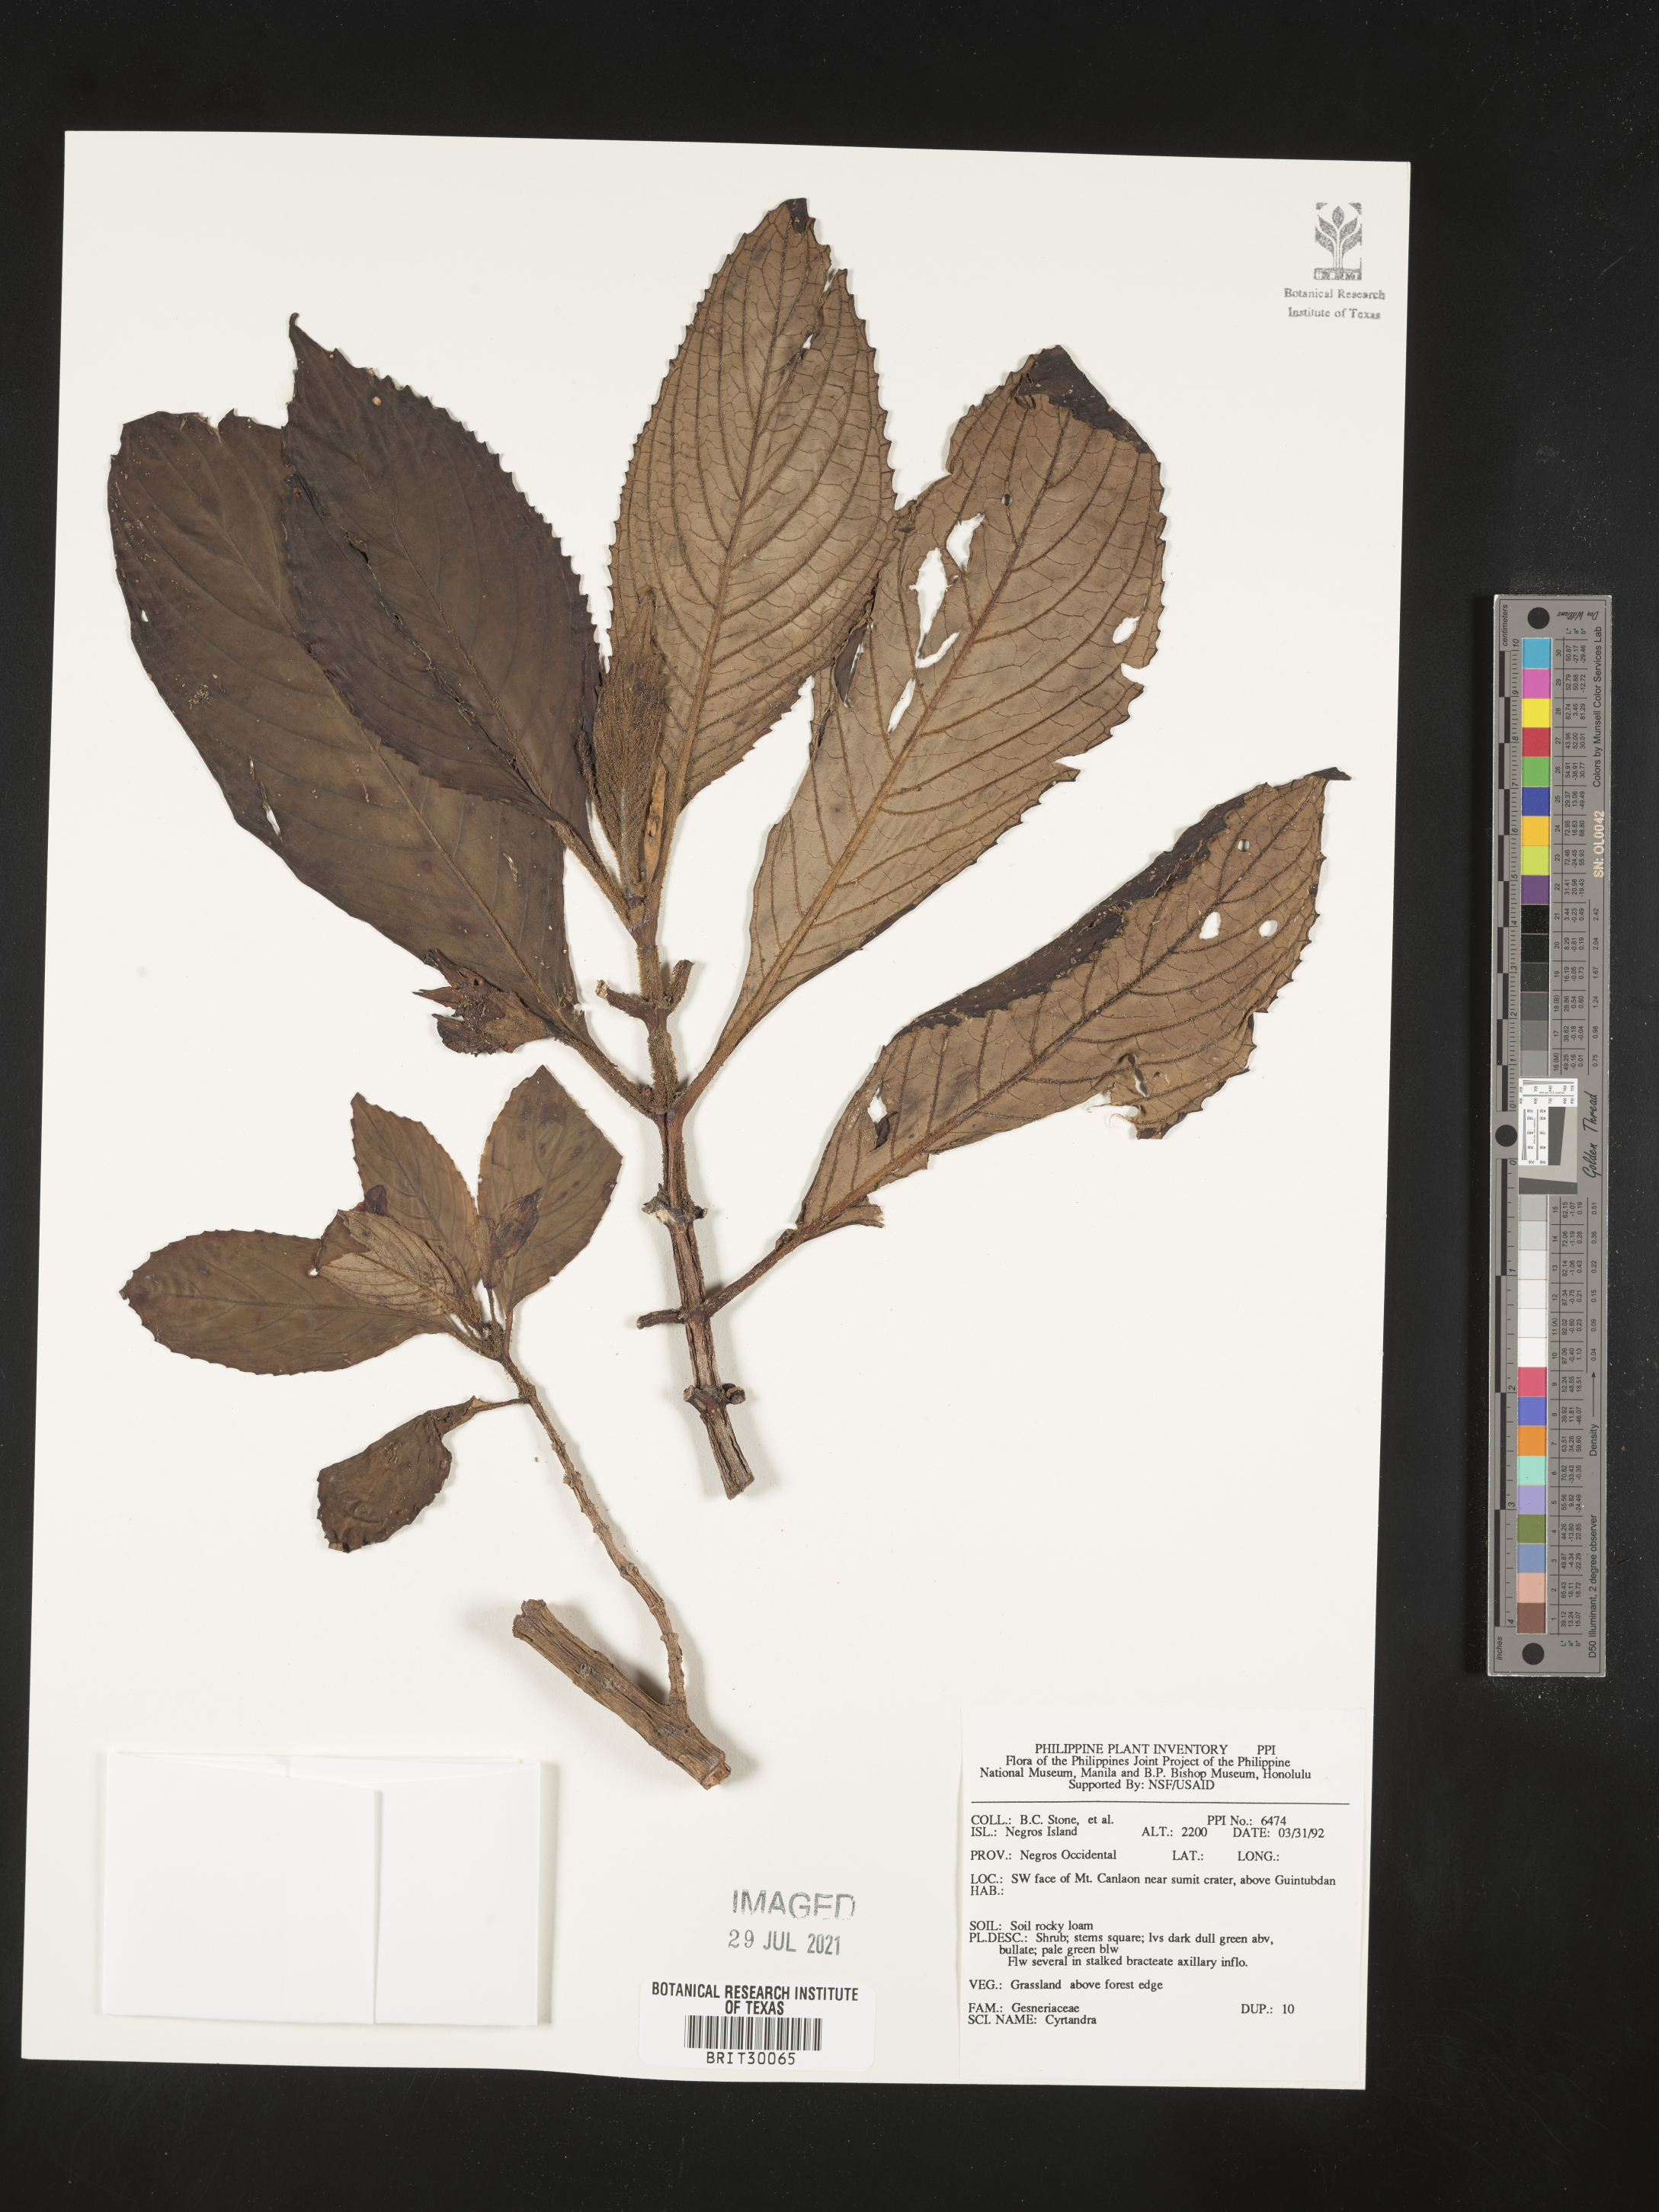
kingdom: Plantae
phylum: Tracheophyta
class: Magnoliopsida
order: Lamiales
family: Gesneriaceae
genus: Cyrtandra
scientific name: Cyrtandra
